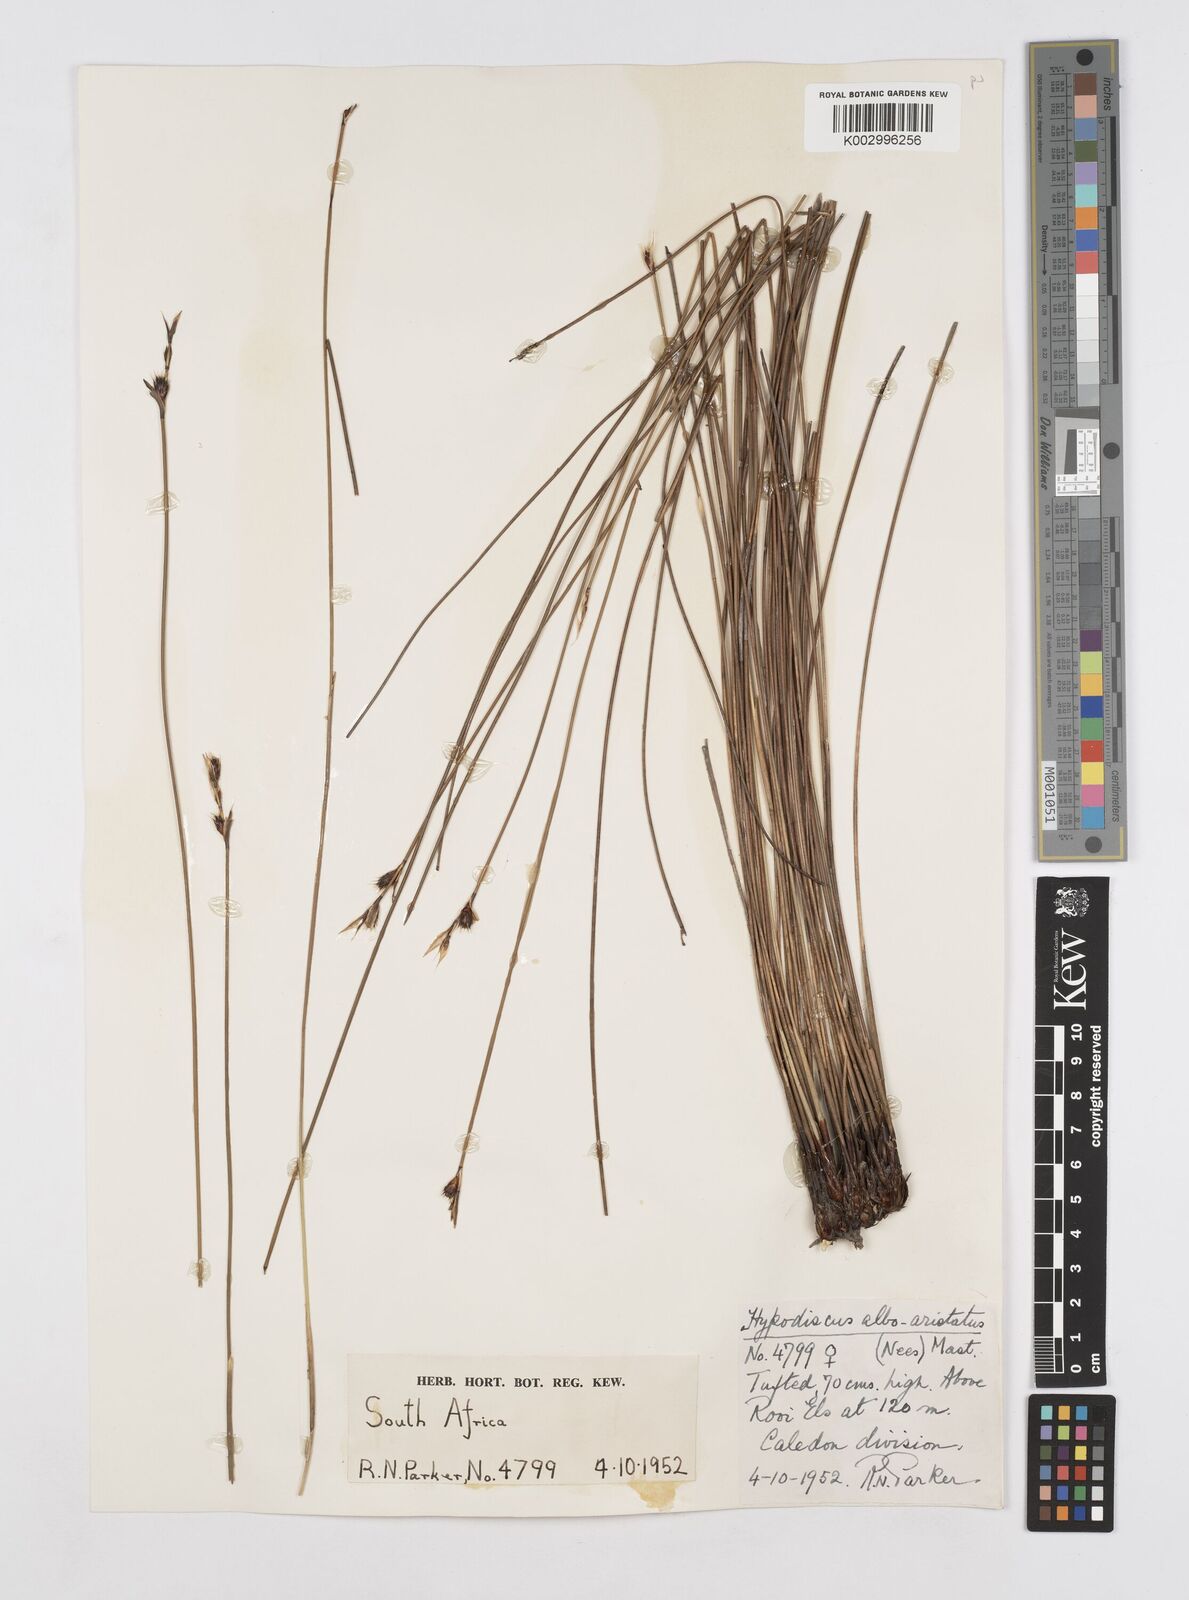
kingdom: Plantae
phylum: Tracheophyta
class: Liliopsida
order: Poales
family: Restionaceae
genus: Hypodiscus
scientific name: Hypodiscus alboaristatus
